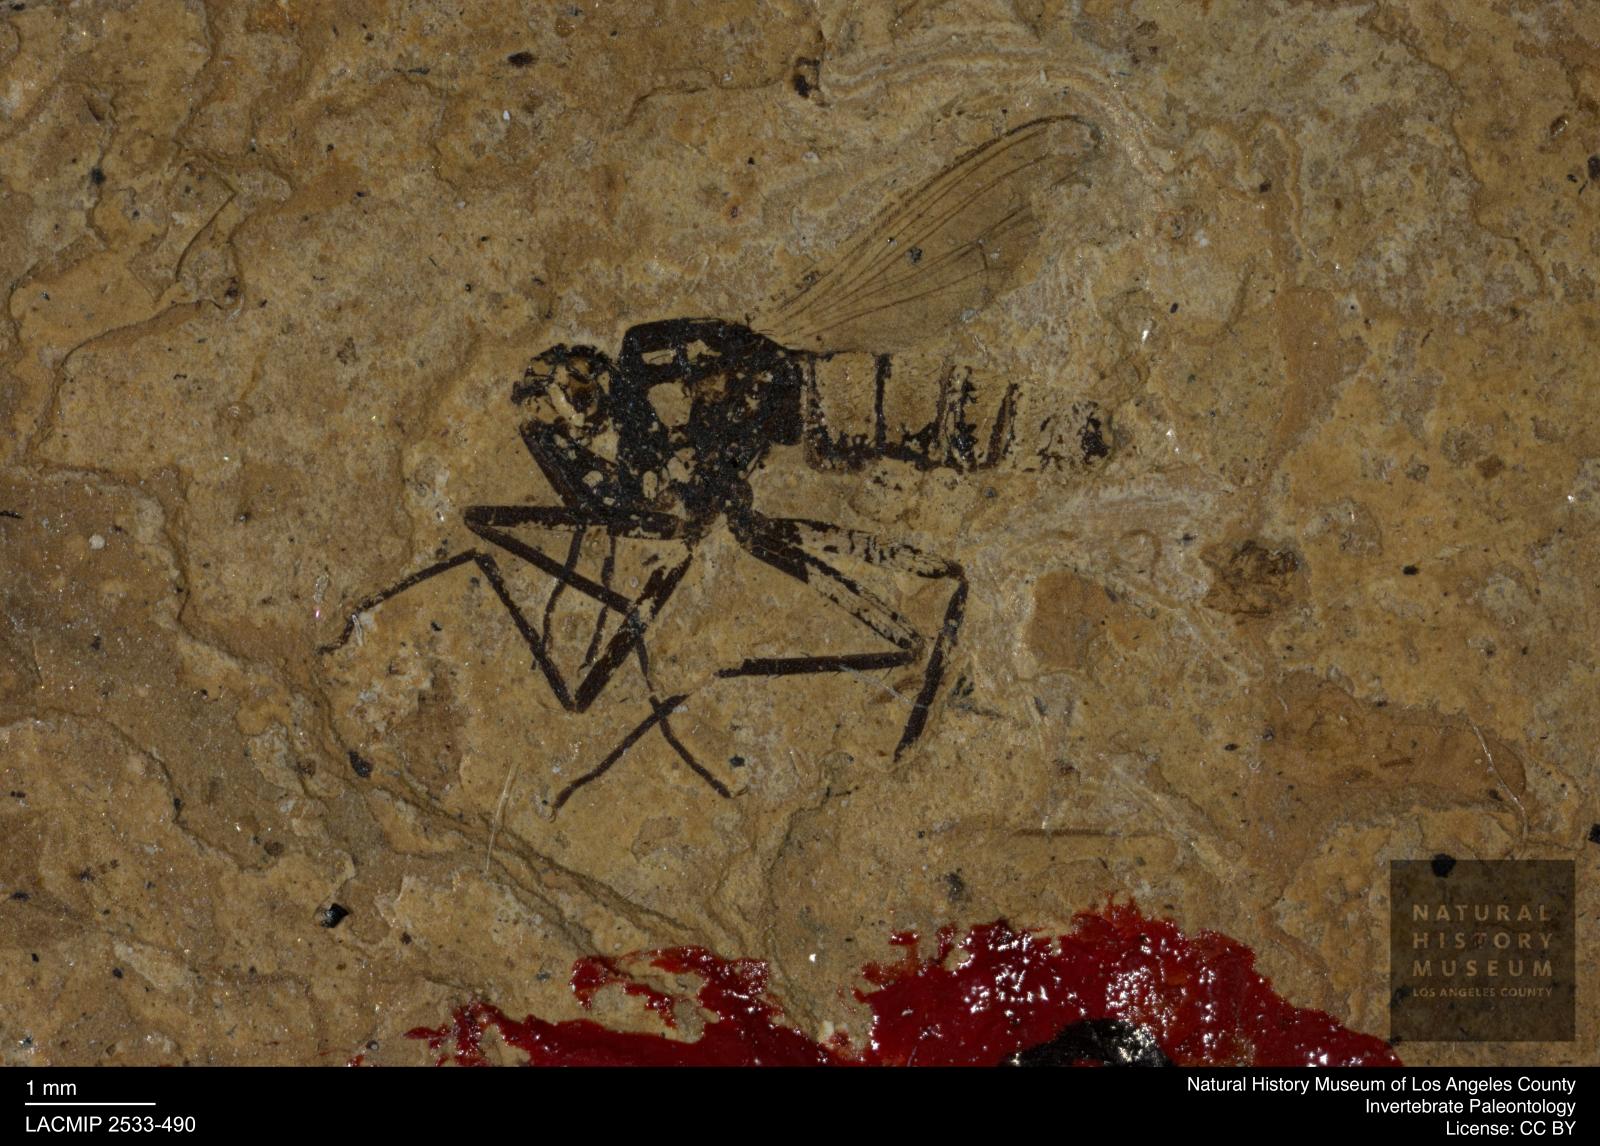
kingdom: Animalia
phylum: Arthropoda
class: Insecta
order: Diptera
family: Dolichopodidae
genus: Oncopygius
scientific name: Oncopygius gracilior
